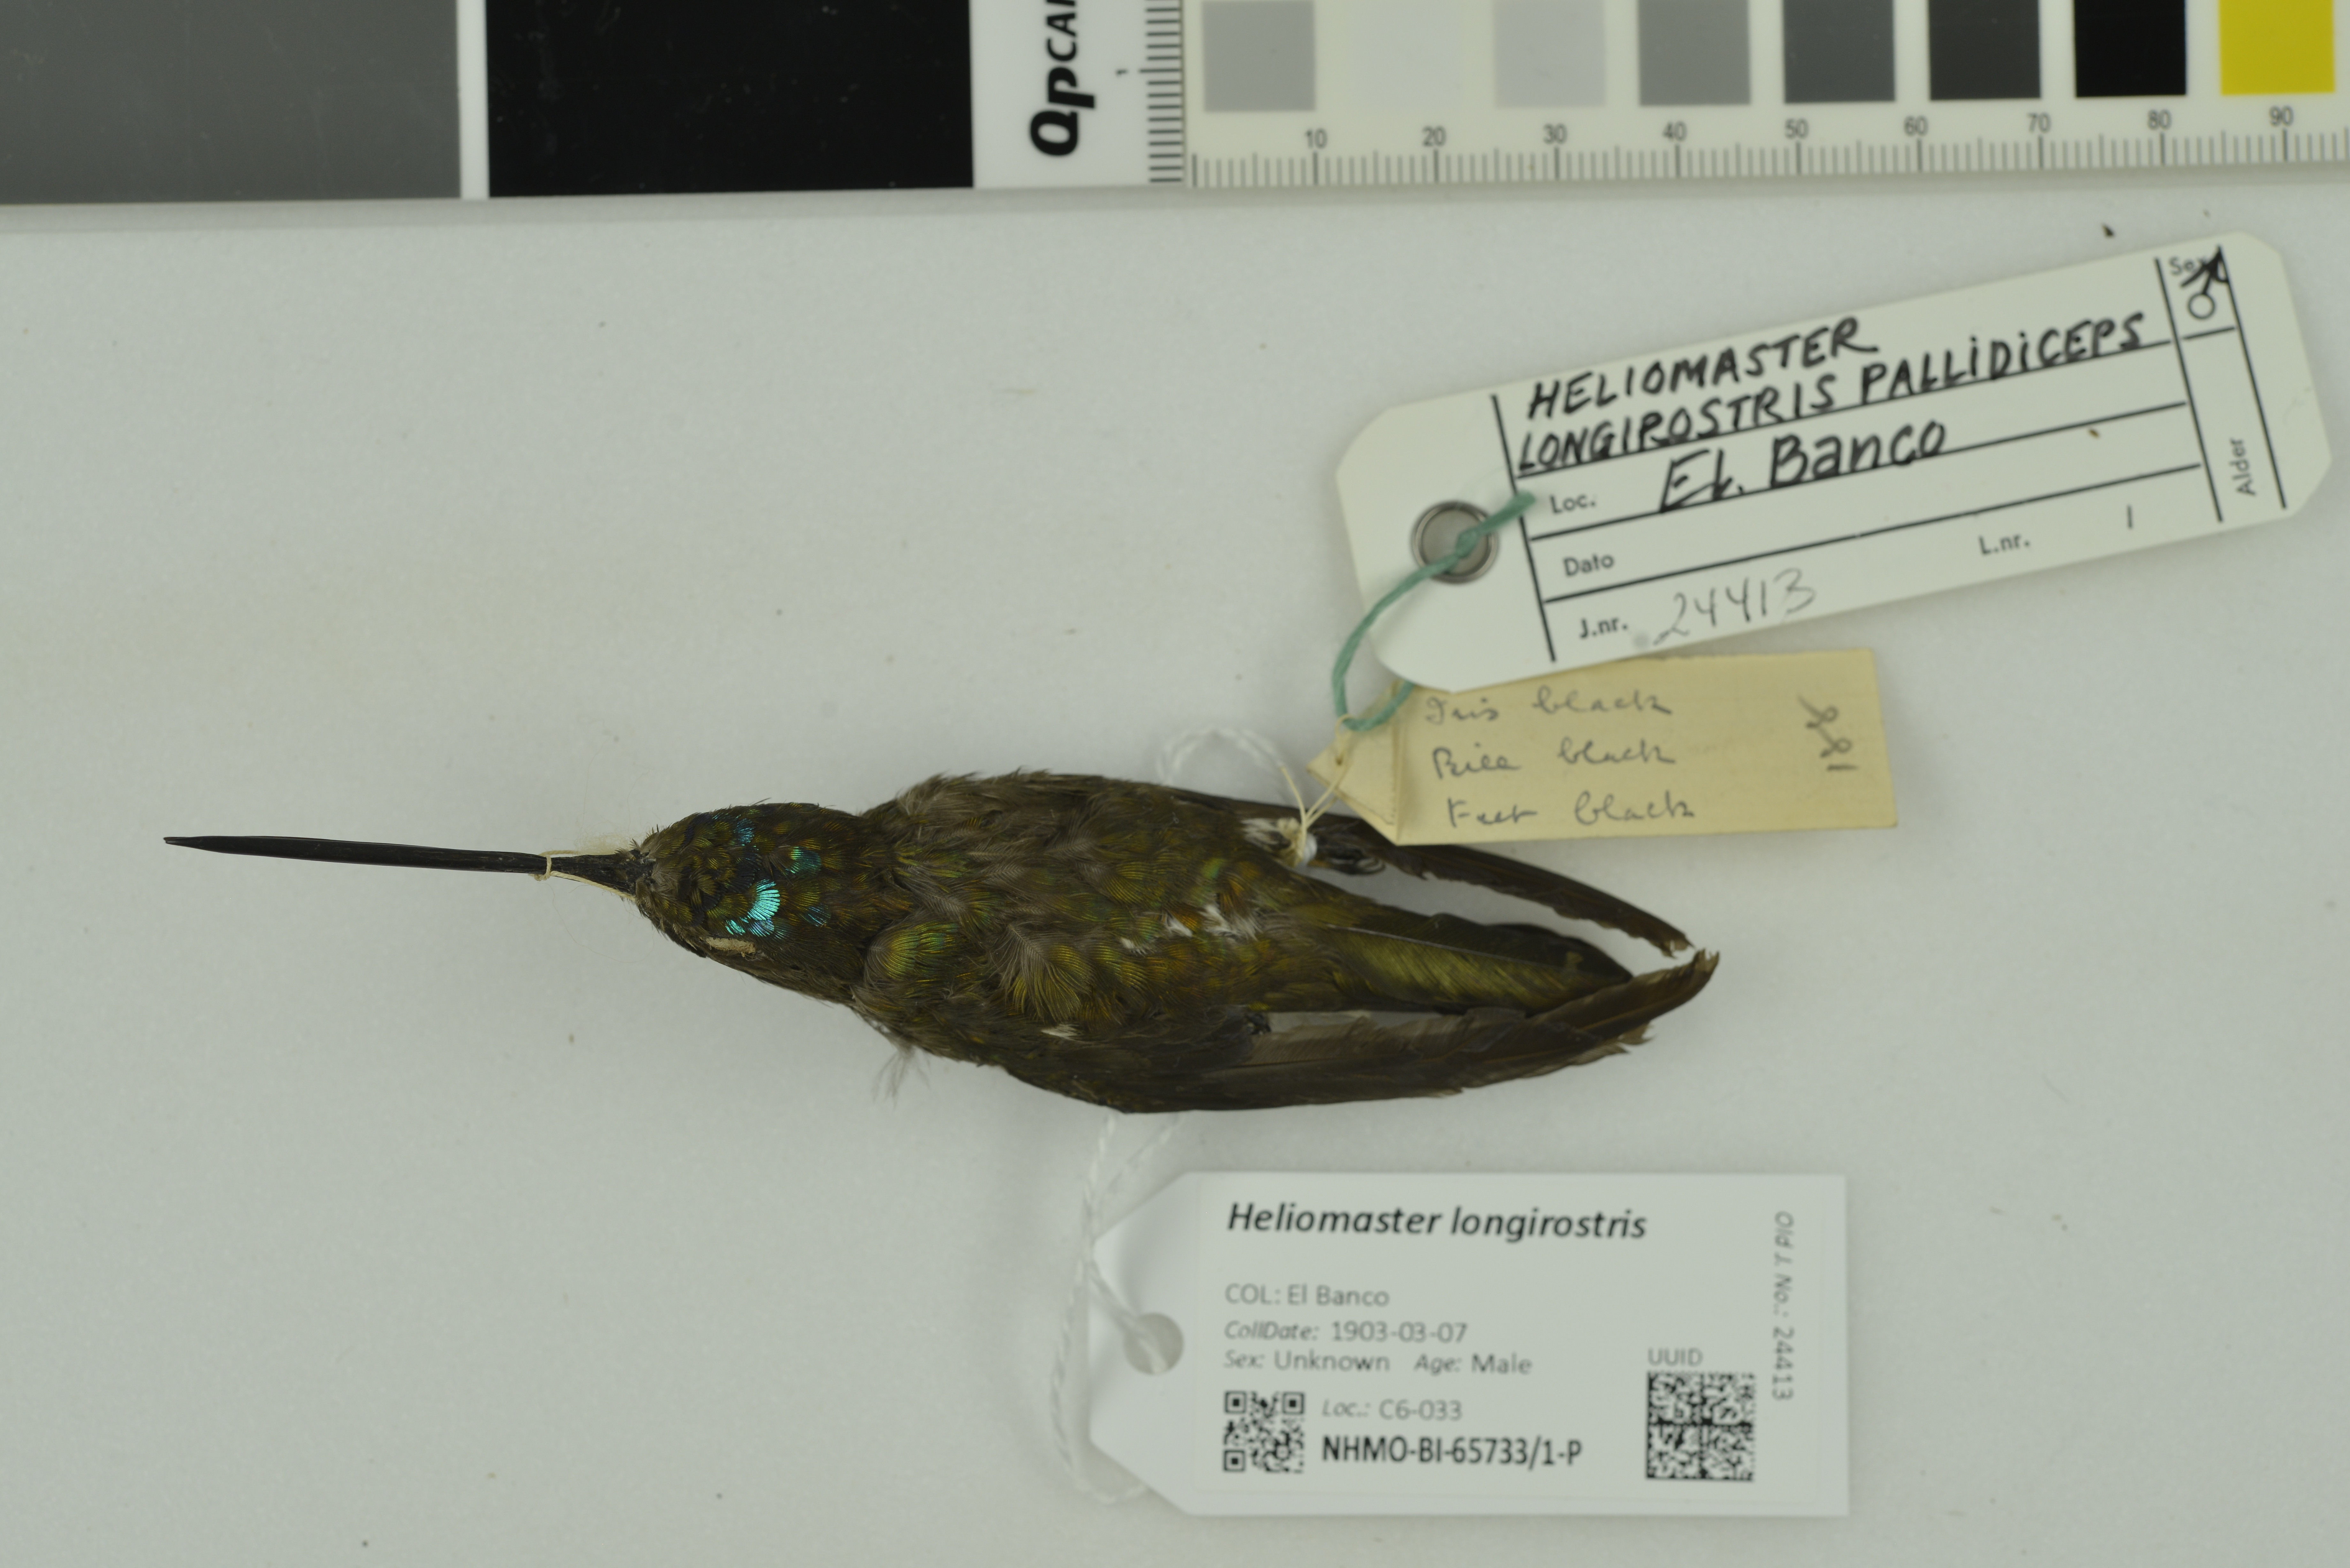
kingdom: Animalia
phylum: Chordata
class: Aves
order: Apodiformes
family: Trochilidae
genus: Heliomaster
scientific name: Heliomaster longirostris
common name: Long-billed starthroat
